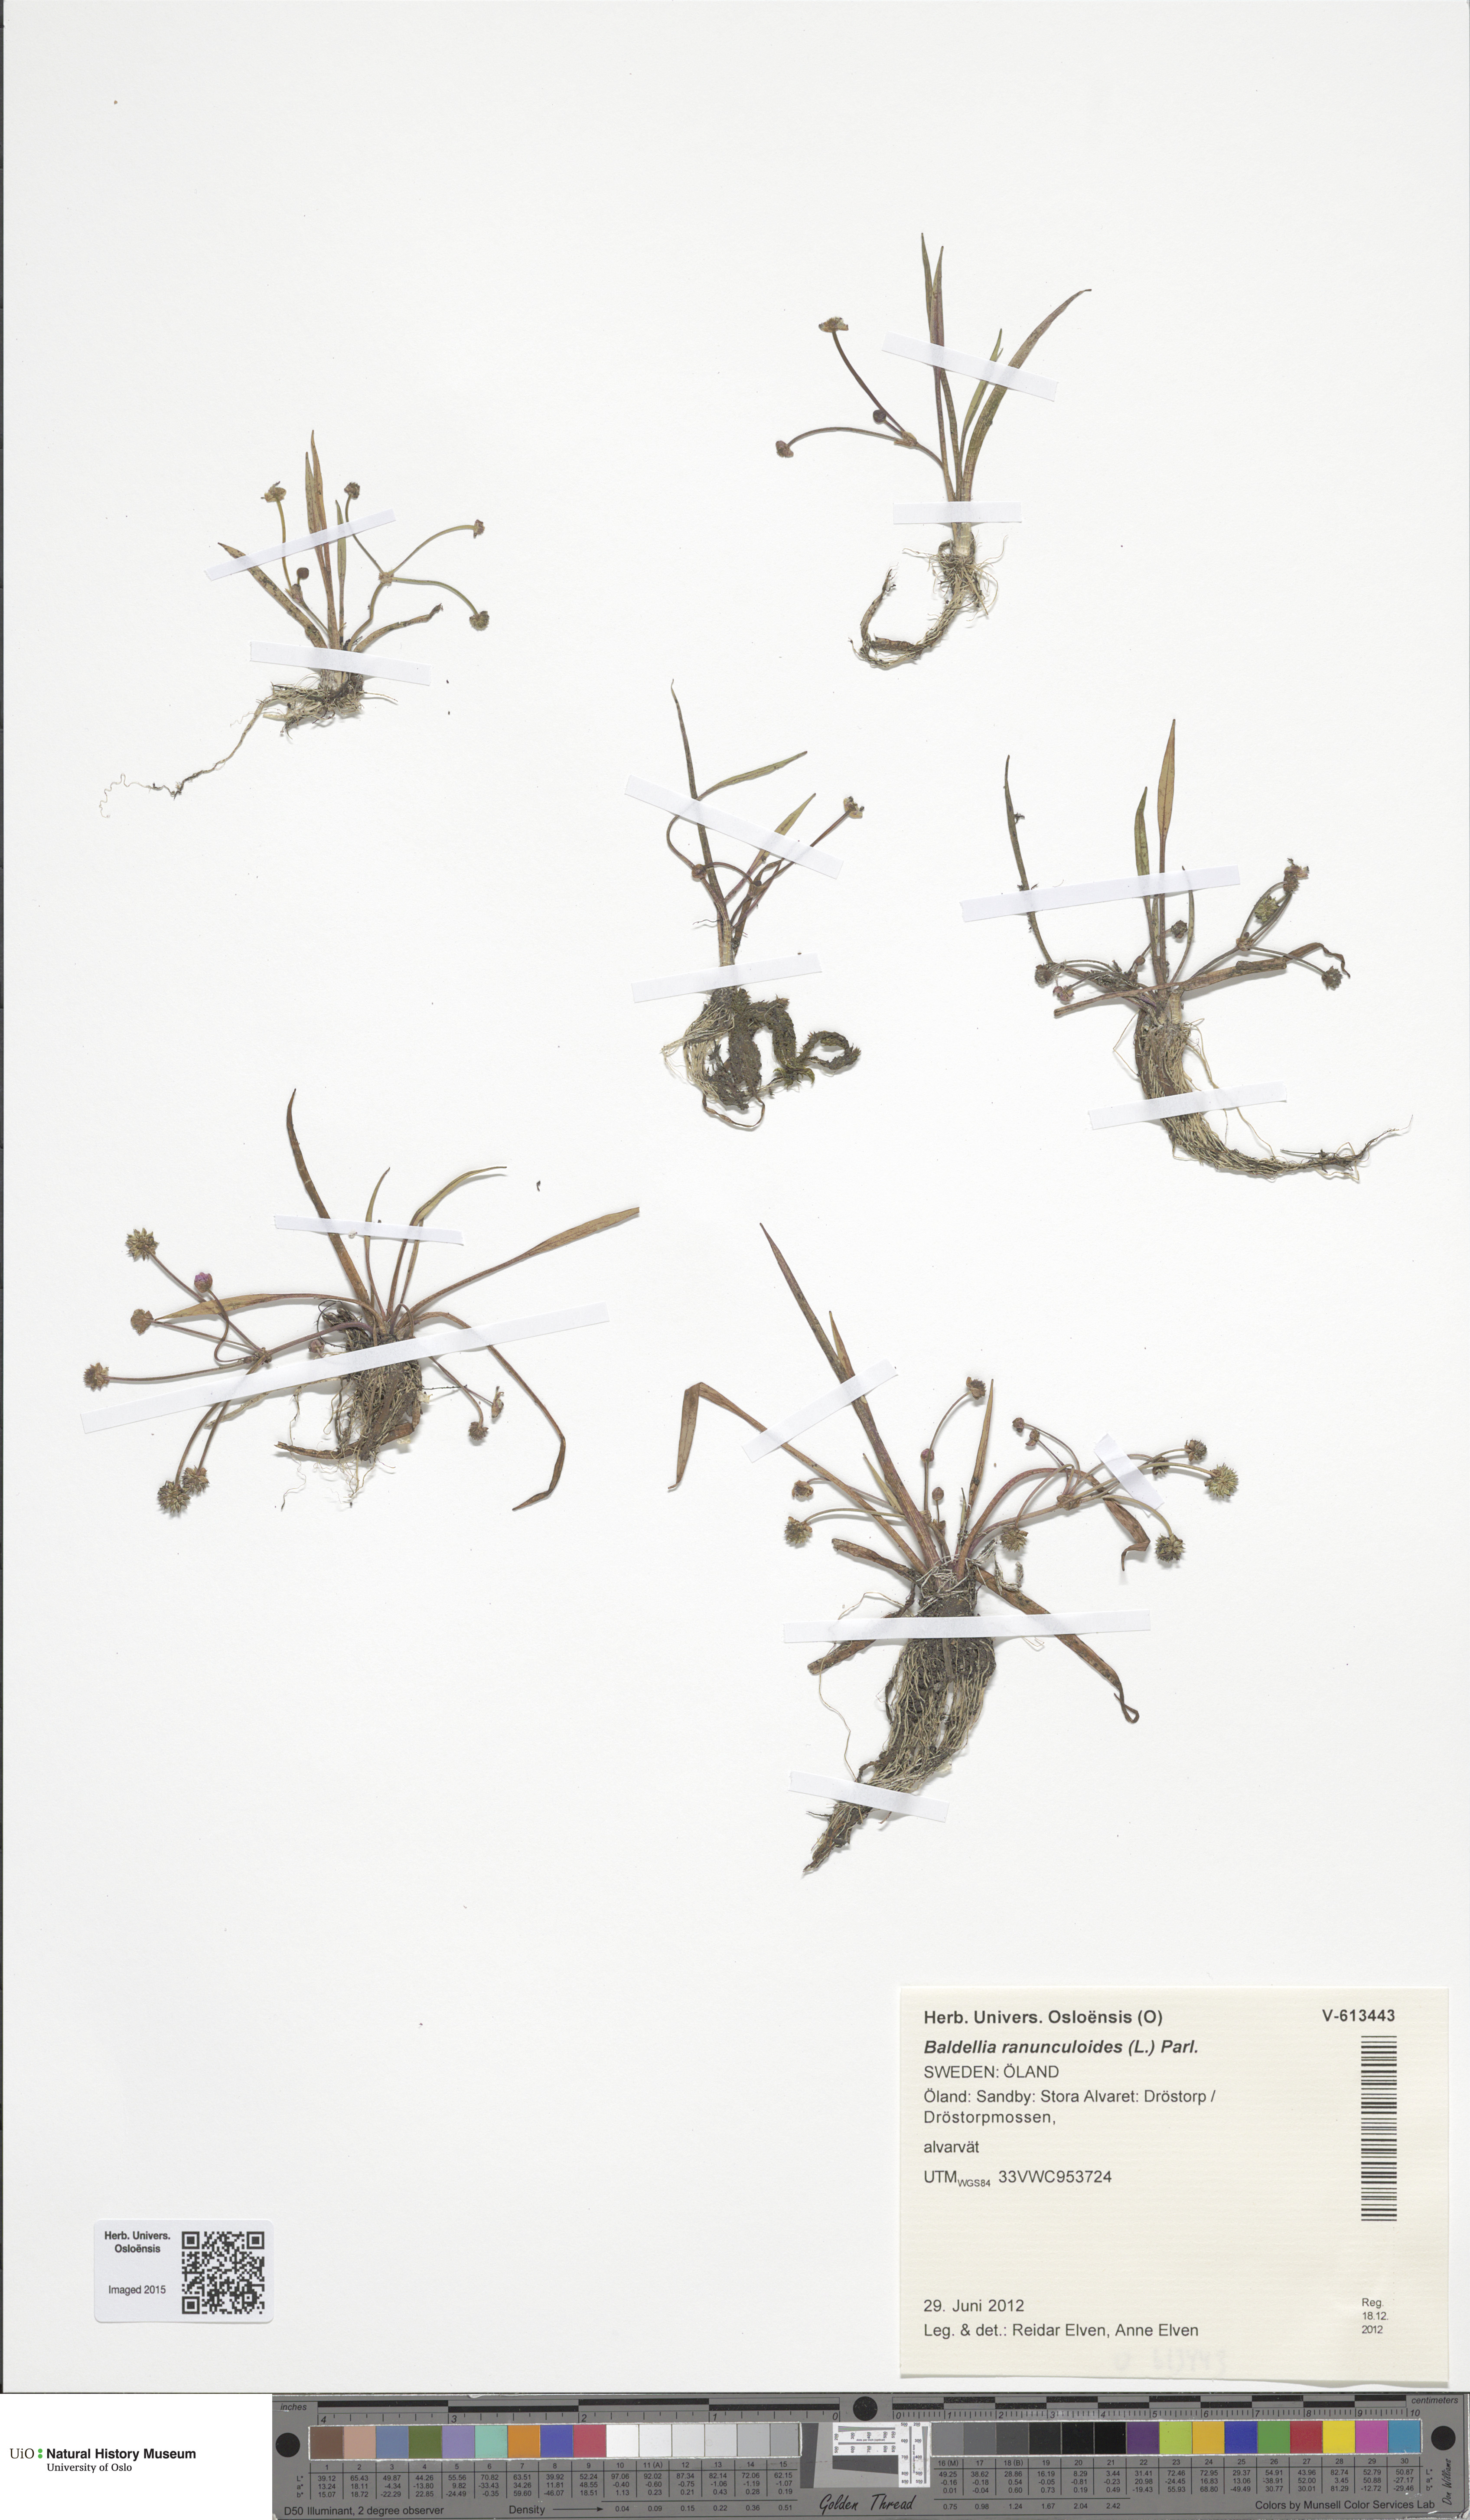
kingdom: Plantae
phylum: Tracheophyta
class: Liliopsida
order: Alismatales
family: Alismataceae
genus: Baldellia
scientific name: Baldellia ranunculoides
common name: Lesser water-plantain
